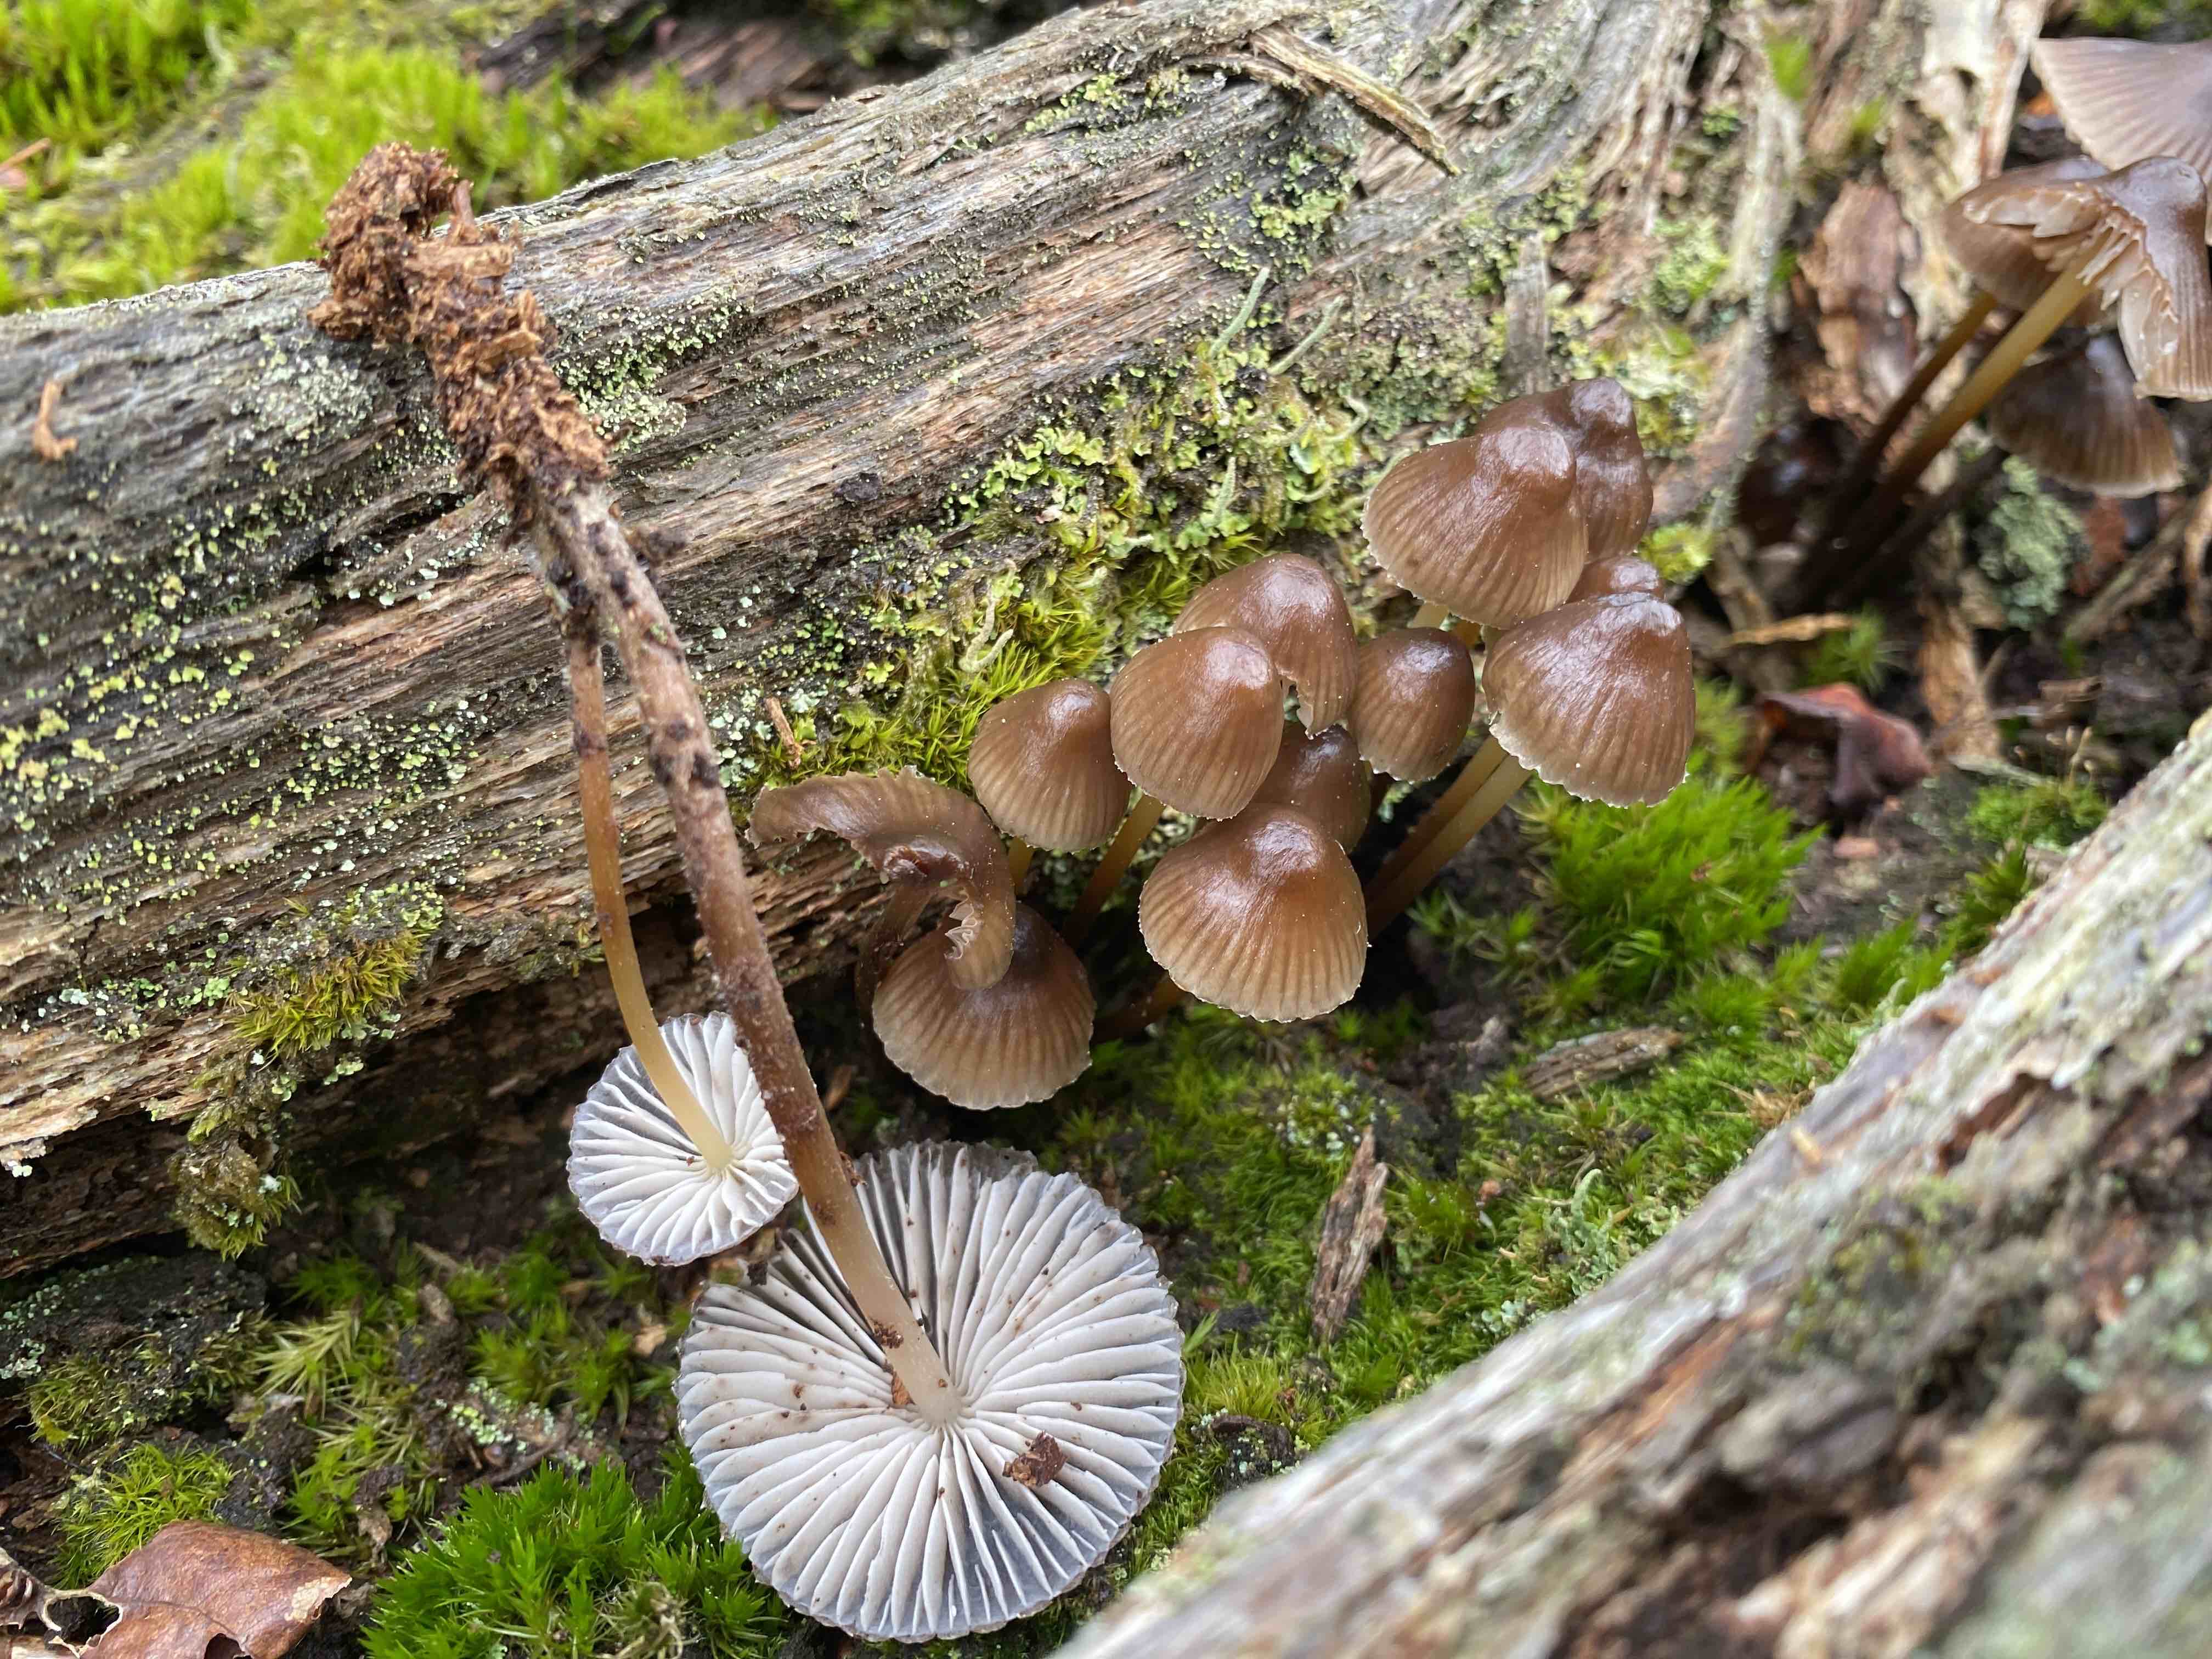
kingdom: Fungi
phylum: Basidiomycota
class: Agaricomycetes
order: Agaricales
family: Mycenaceae
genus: Mycena
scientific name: Mycena inclinata
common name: nikkende huesvamp
